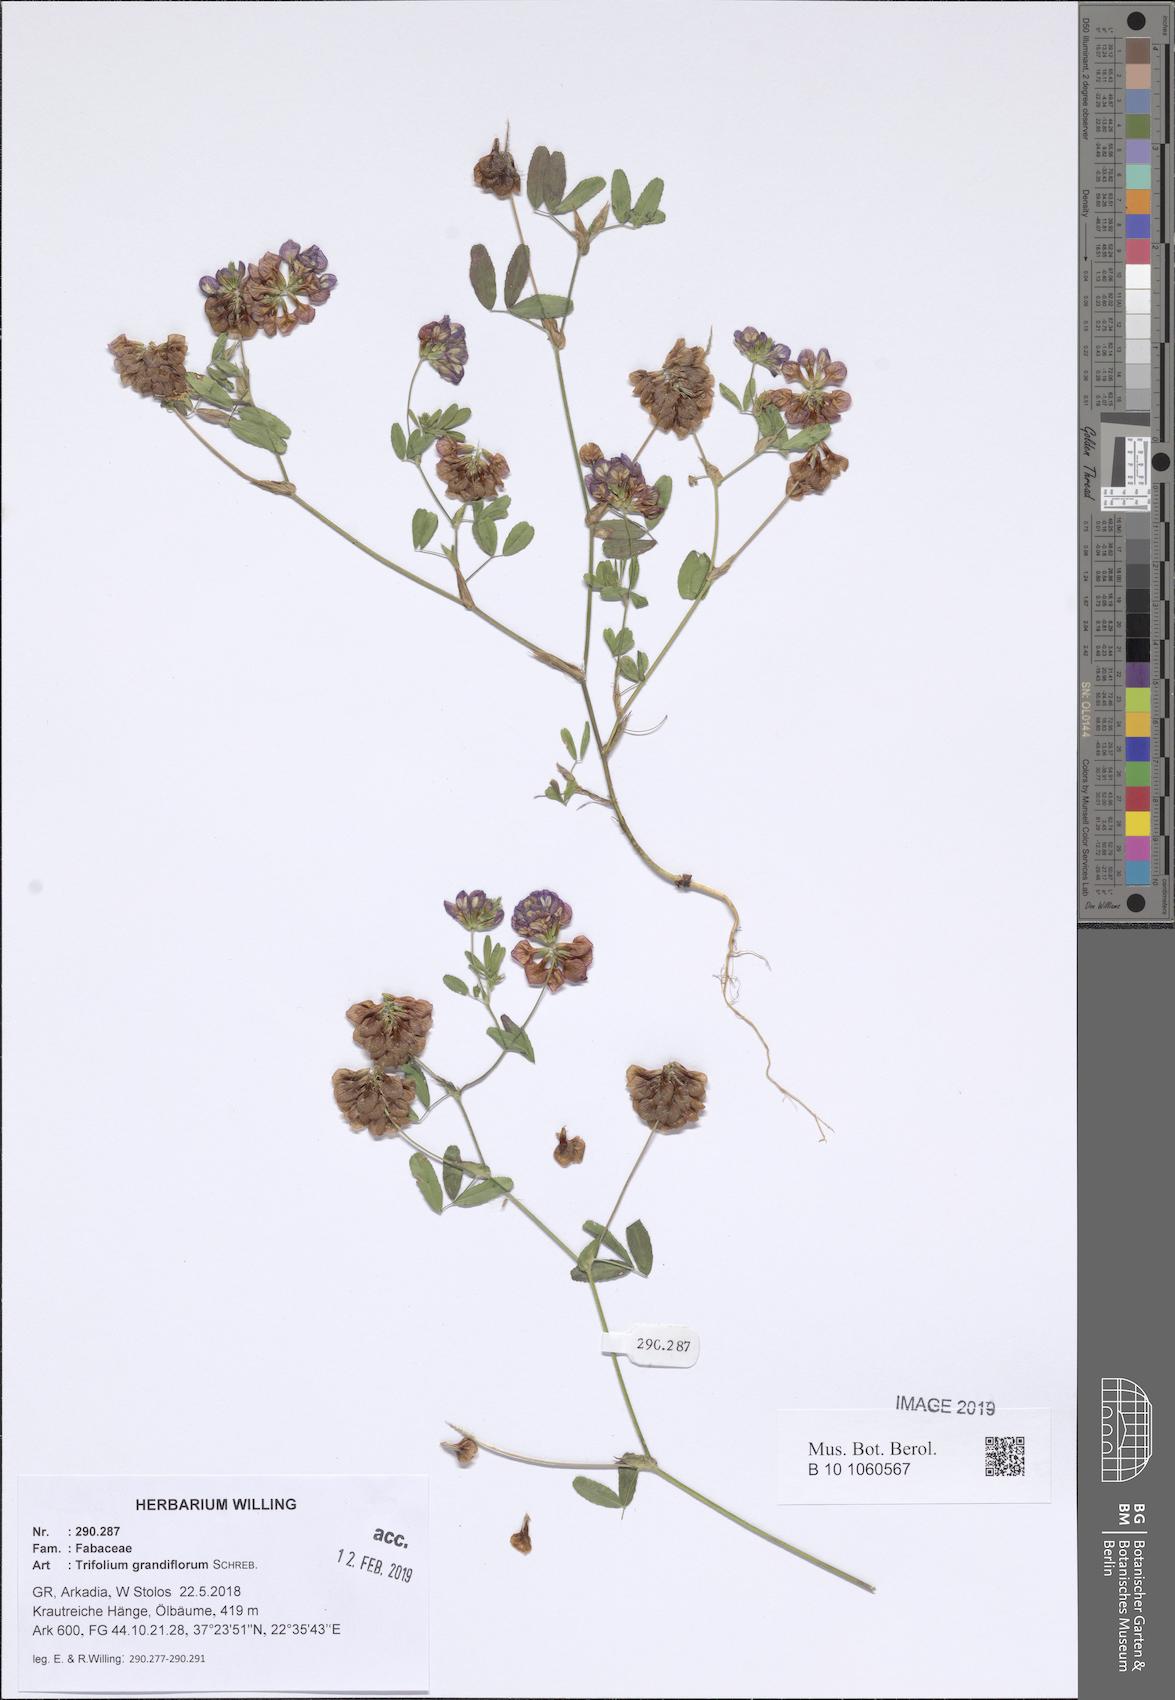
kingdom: Plantae
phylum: Tracheophyta
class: Magnoliopsida
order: Fabales
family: Fabaceae
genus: Trifolium
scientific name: Trifolium grandiflorum
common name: Large-flower hop clover
